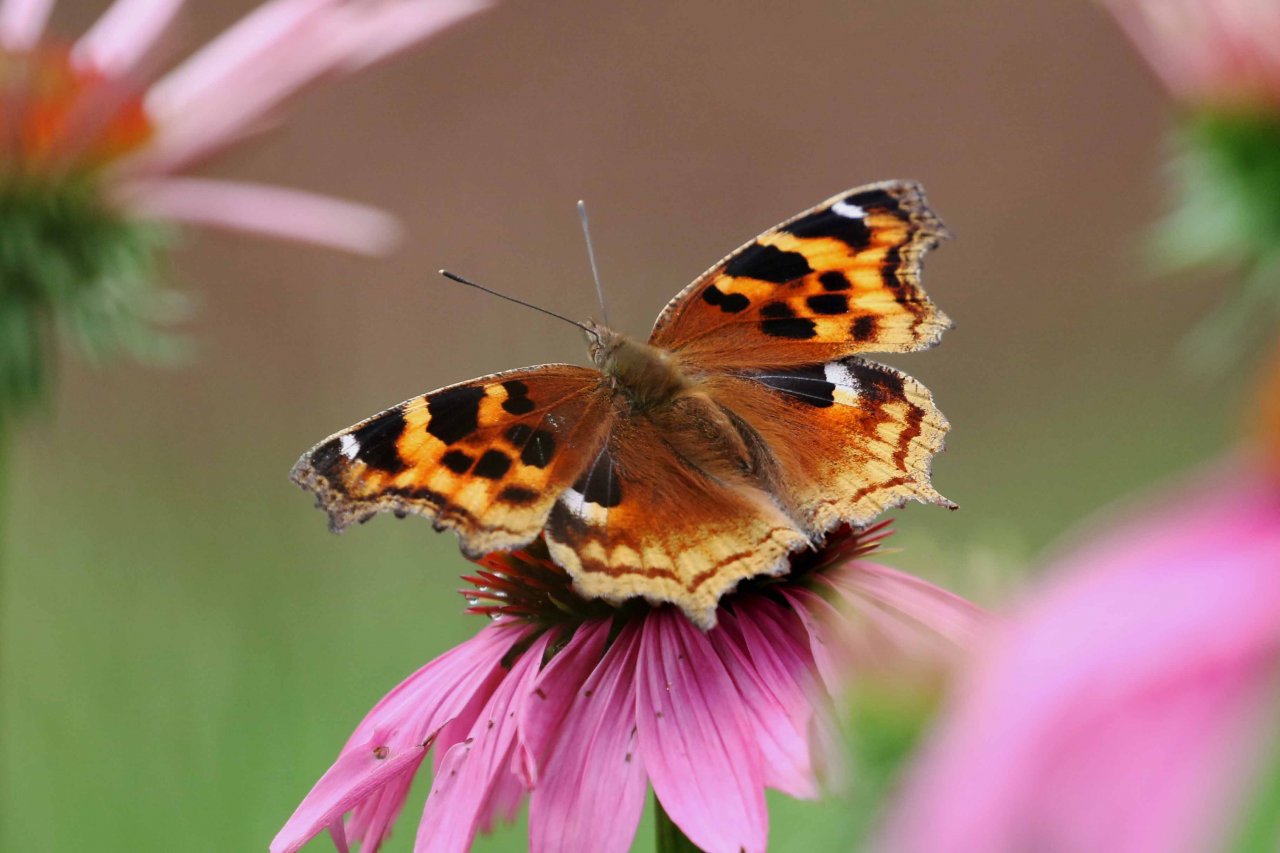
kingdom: Animalia
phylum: Arthropoda
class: Insecta
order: Lepidoptera
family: Nymphalidae
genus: Polygonia
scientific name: Polygonia vaualbum
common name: Compton Tortoiseshell
